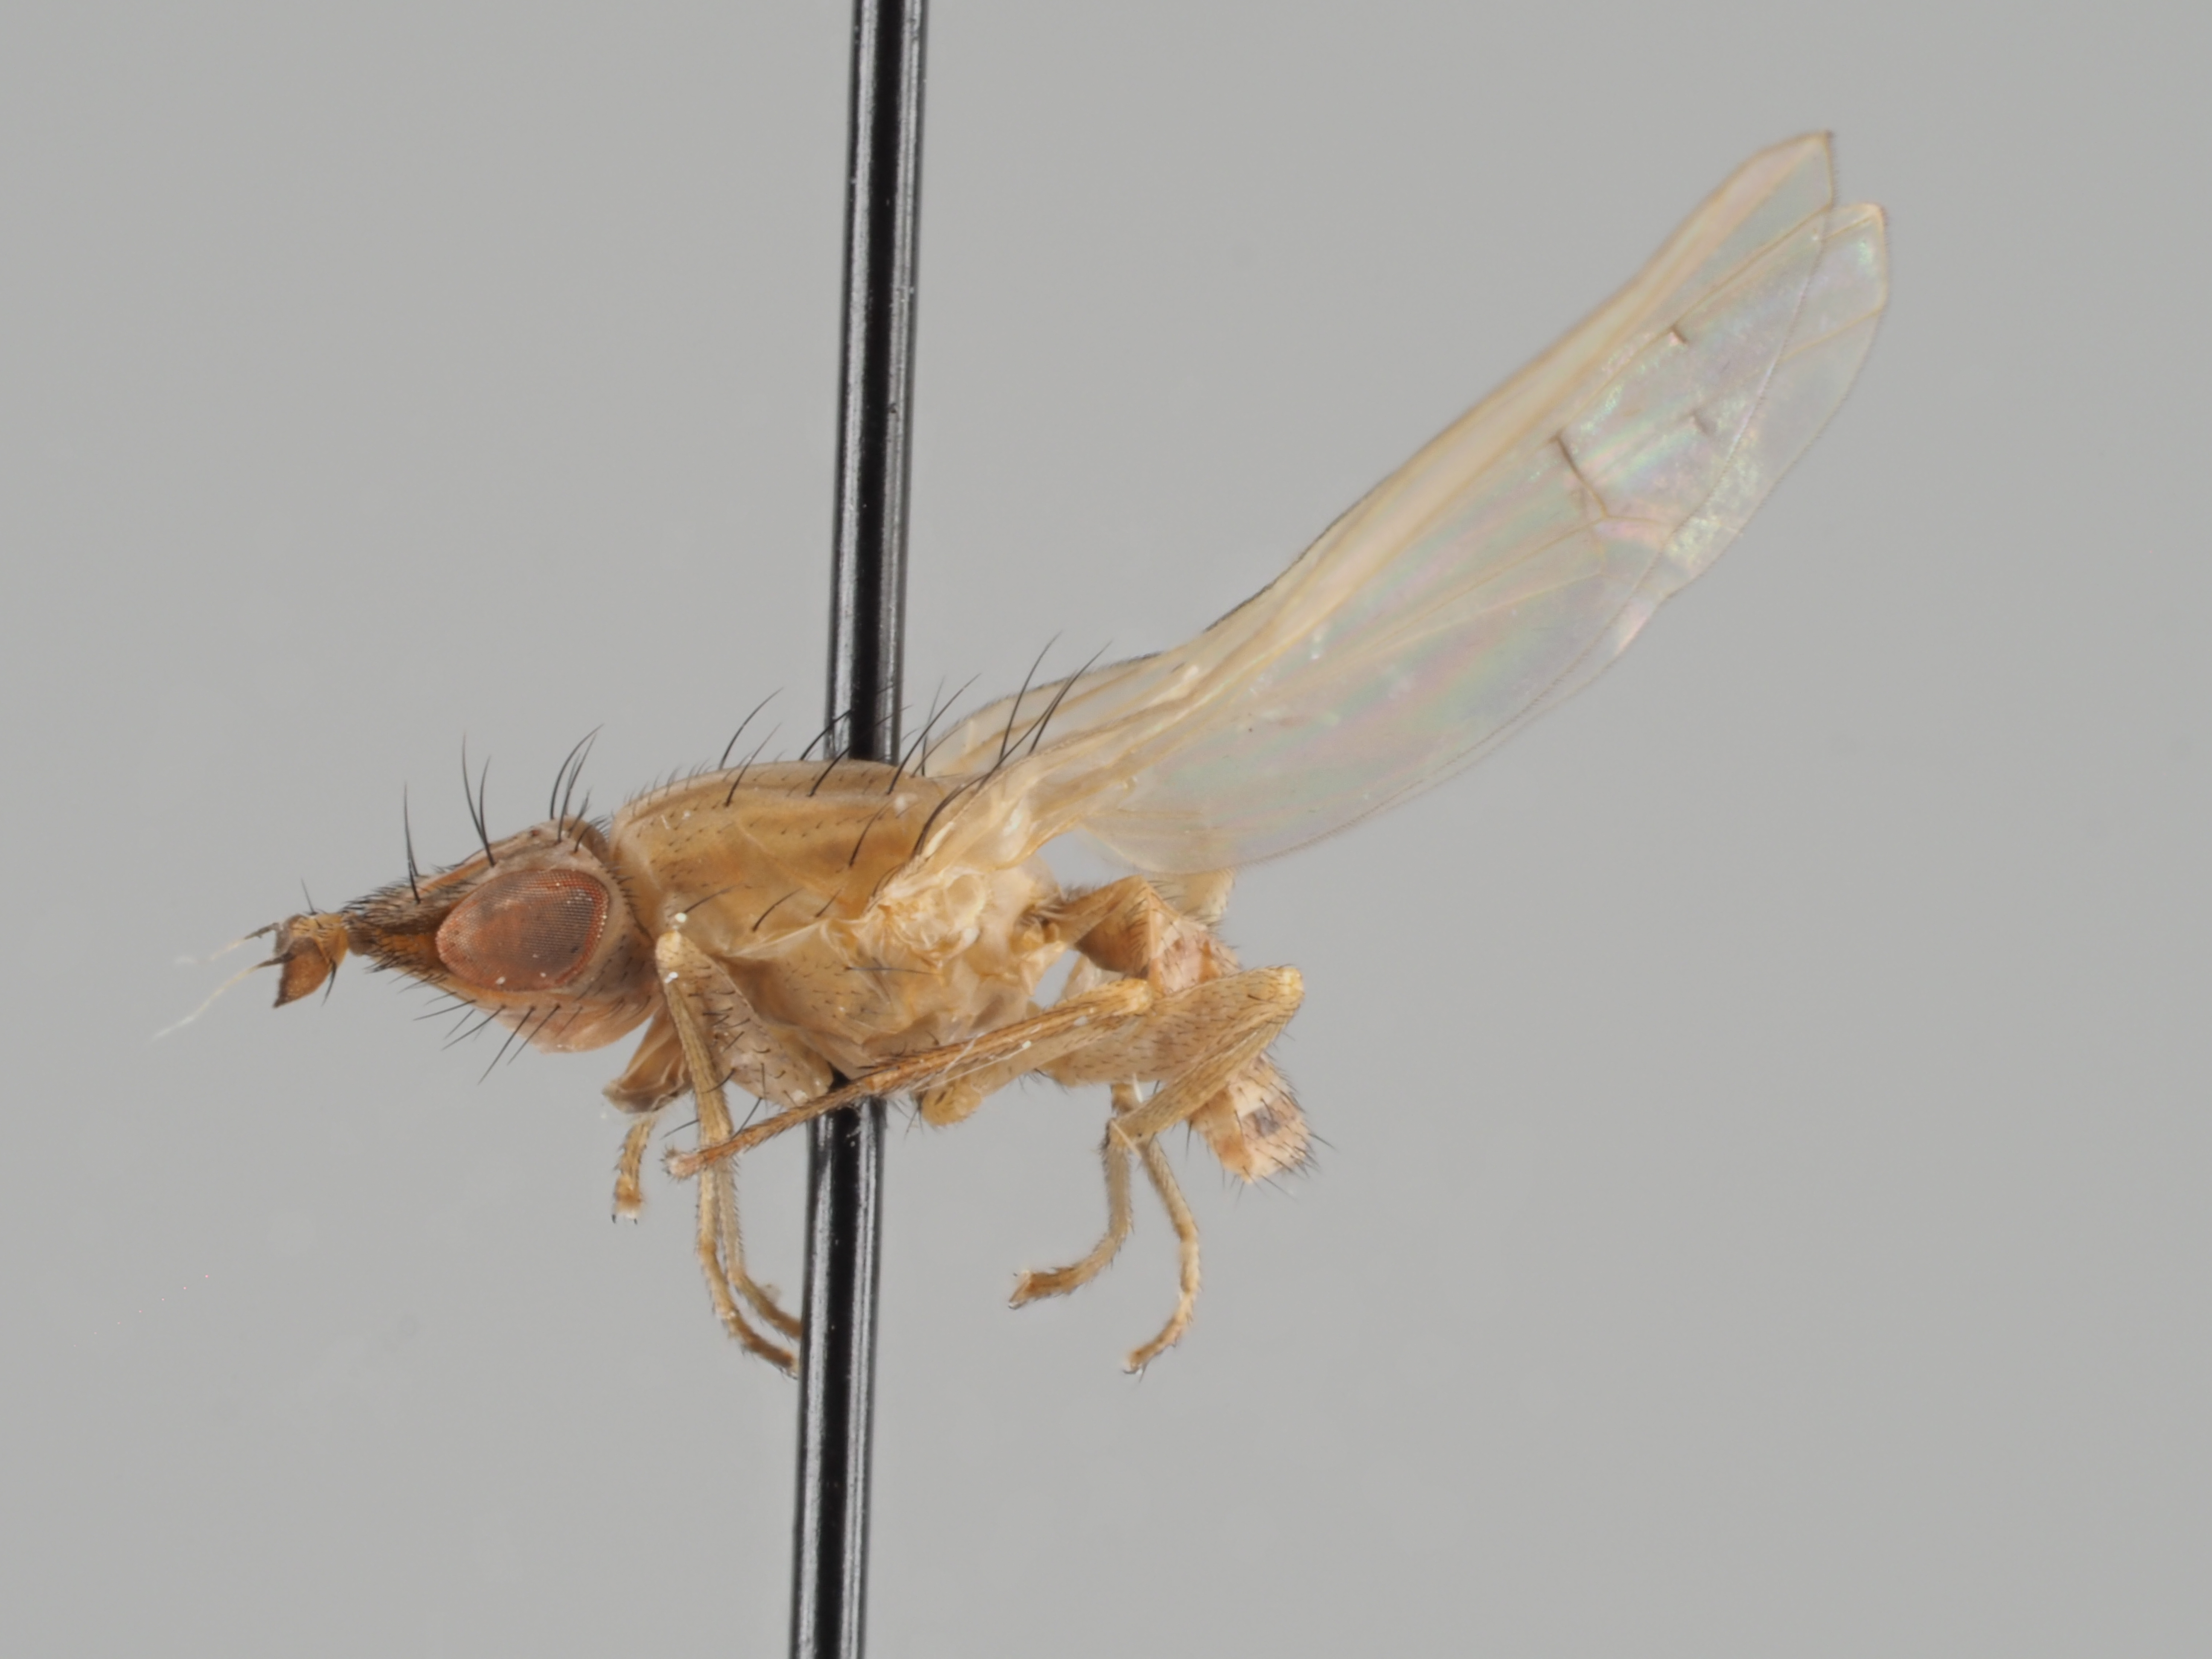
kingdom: Animalia
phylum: Arthropoda
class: Insecta
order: Diptera
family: Lauxaniidae
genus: Trigonometopus
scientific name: Trigonometopus frontalis
